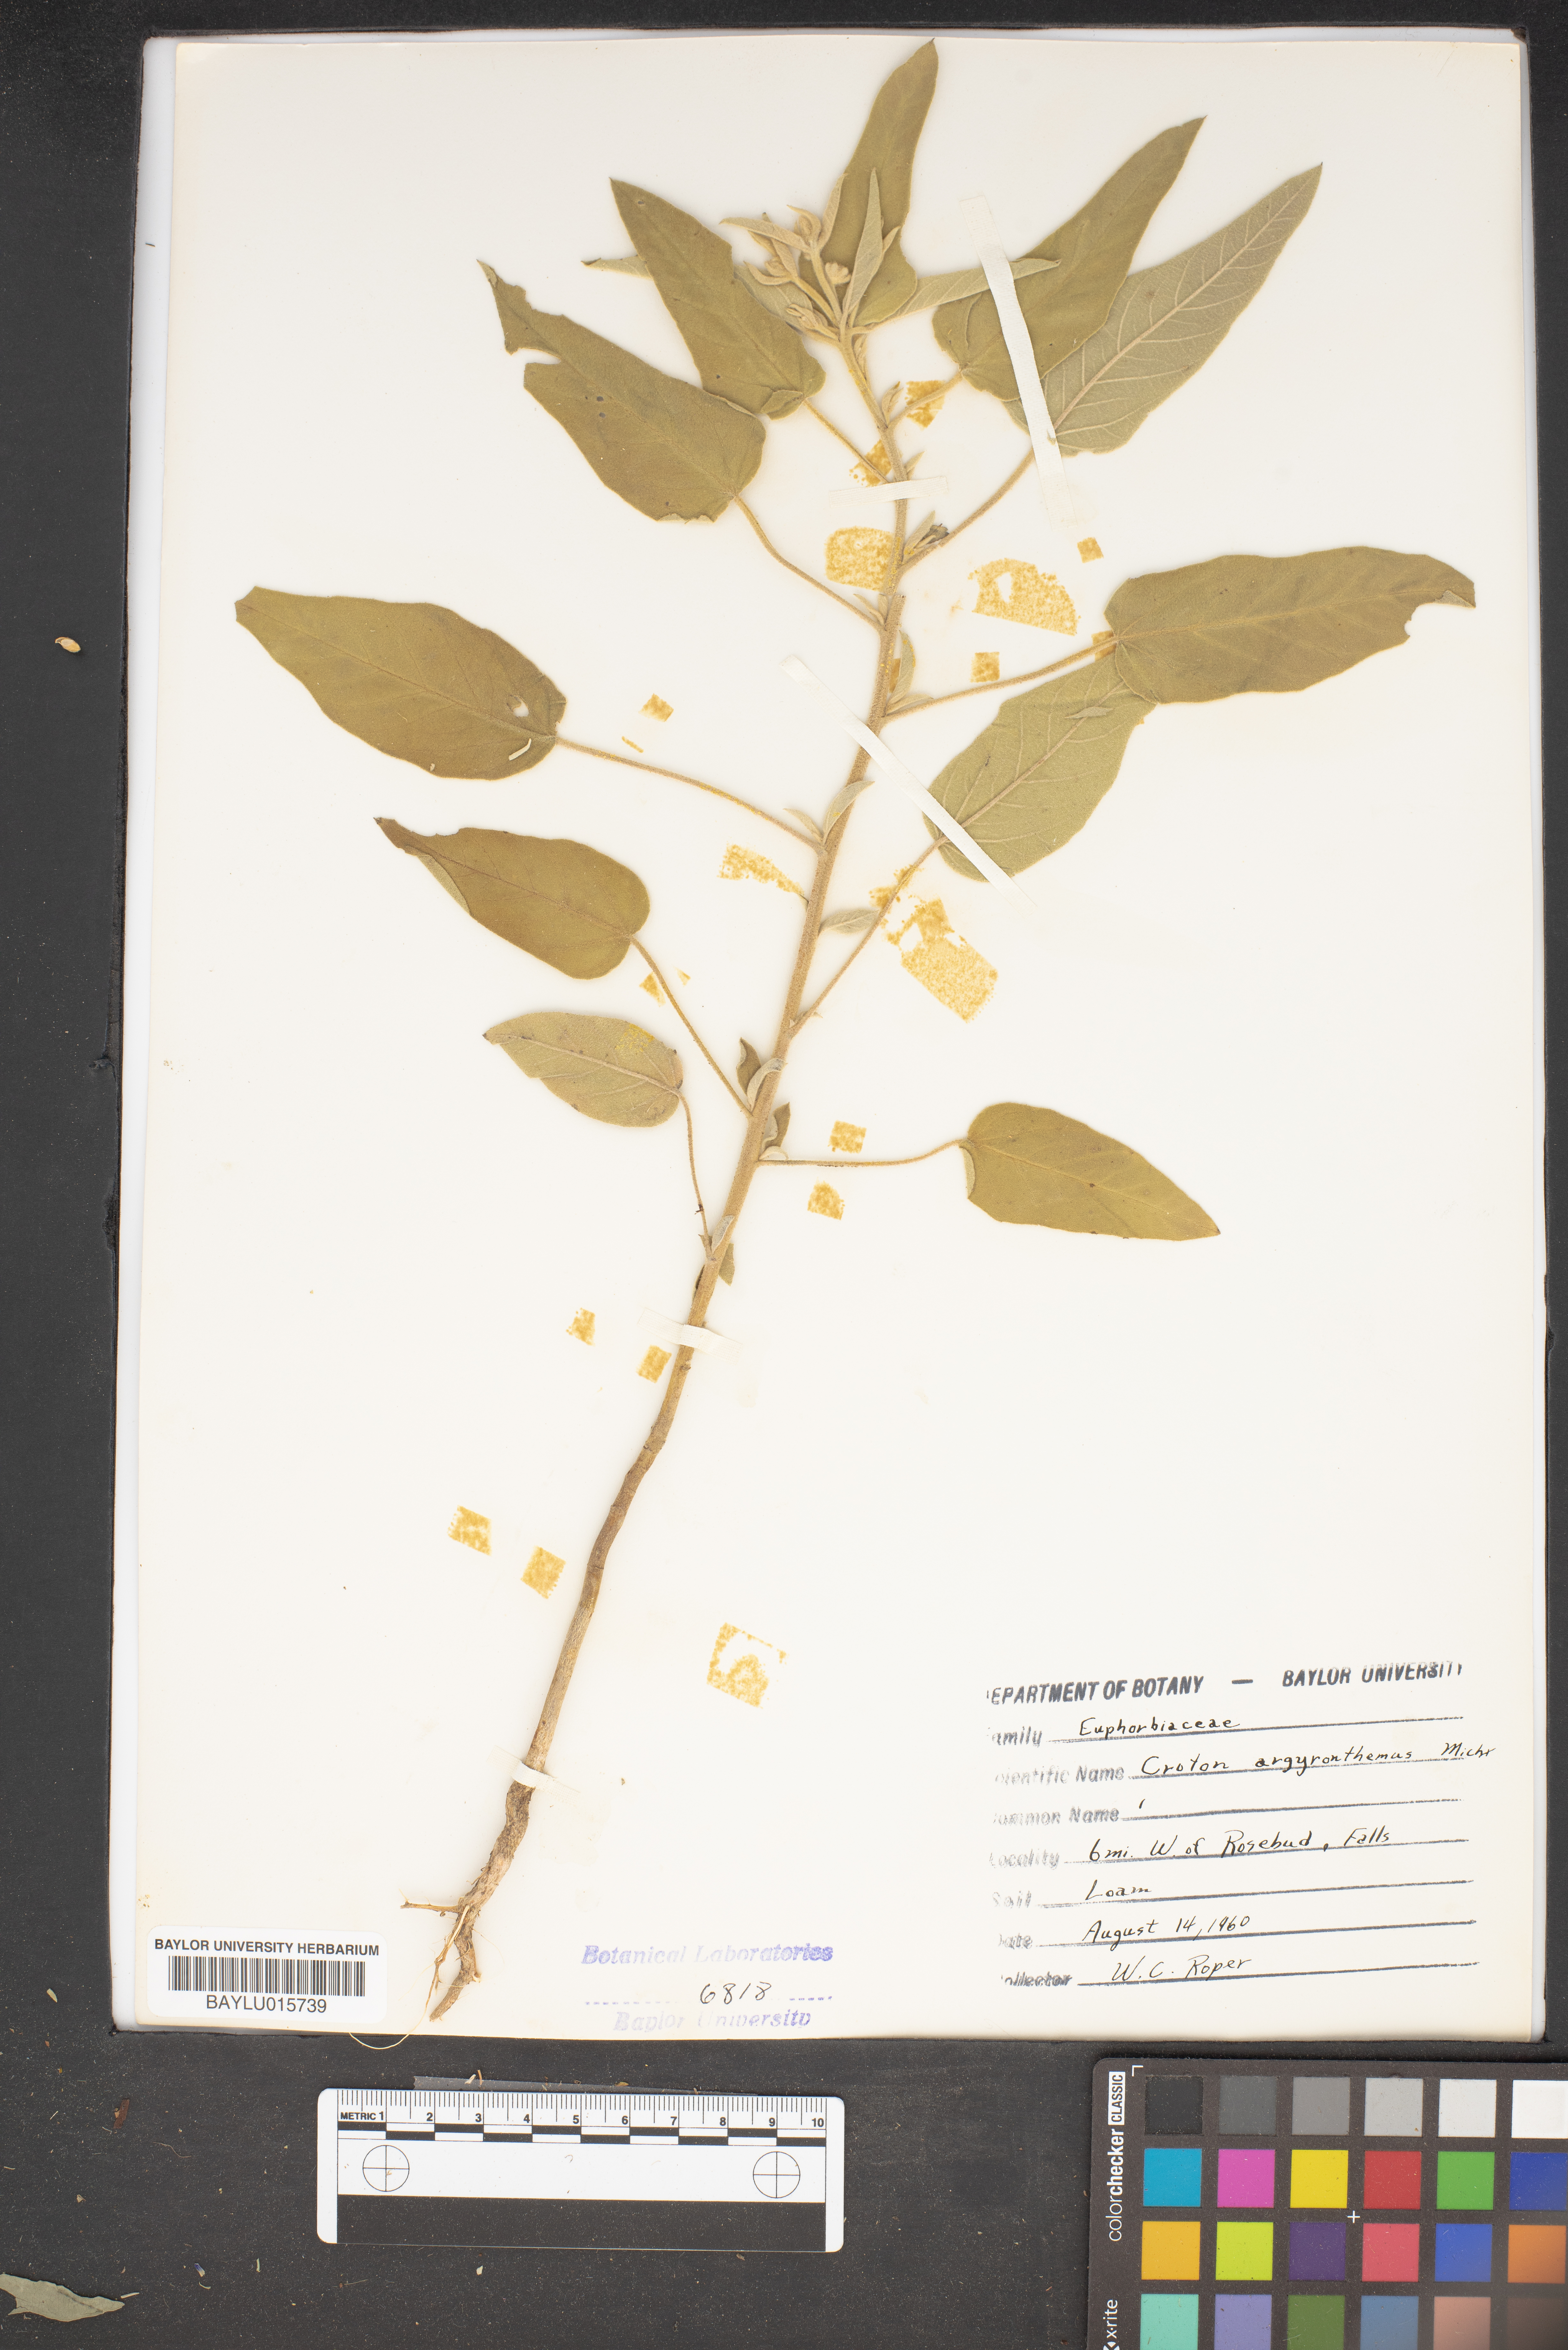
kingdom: Plantae
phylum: Tracheophyta
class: Magnoliopsida
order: Malpighiales
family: Euphorbiaceae
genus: Croton
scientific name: Croton argyranthemus
